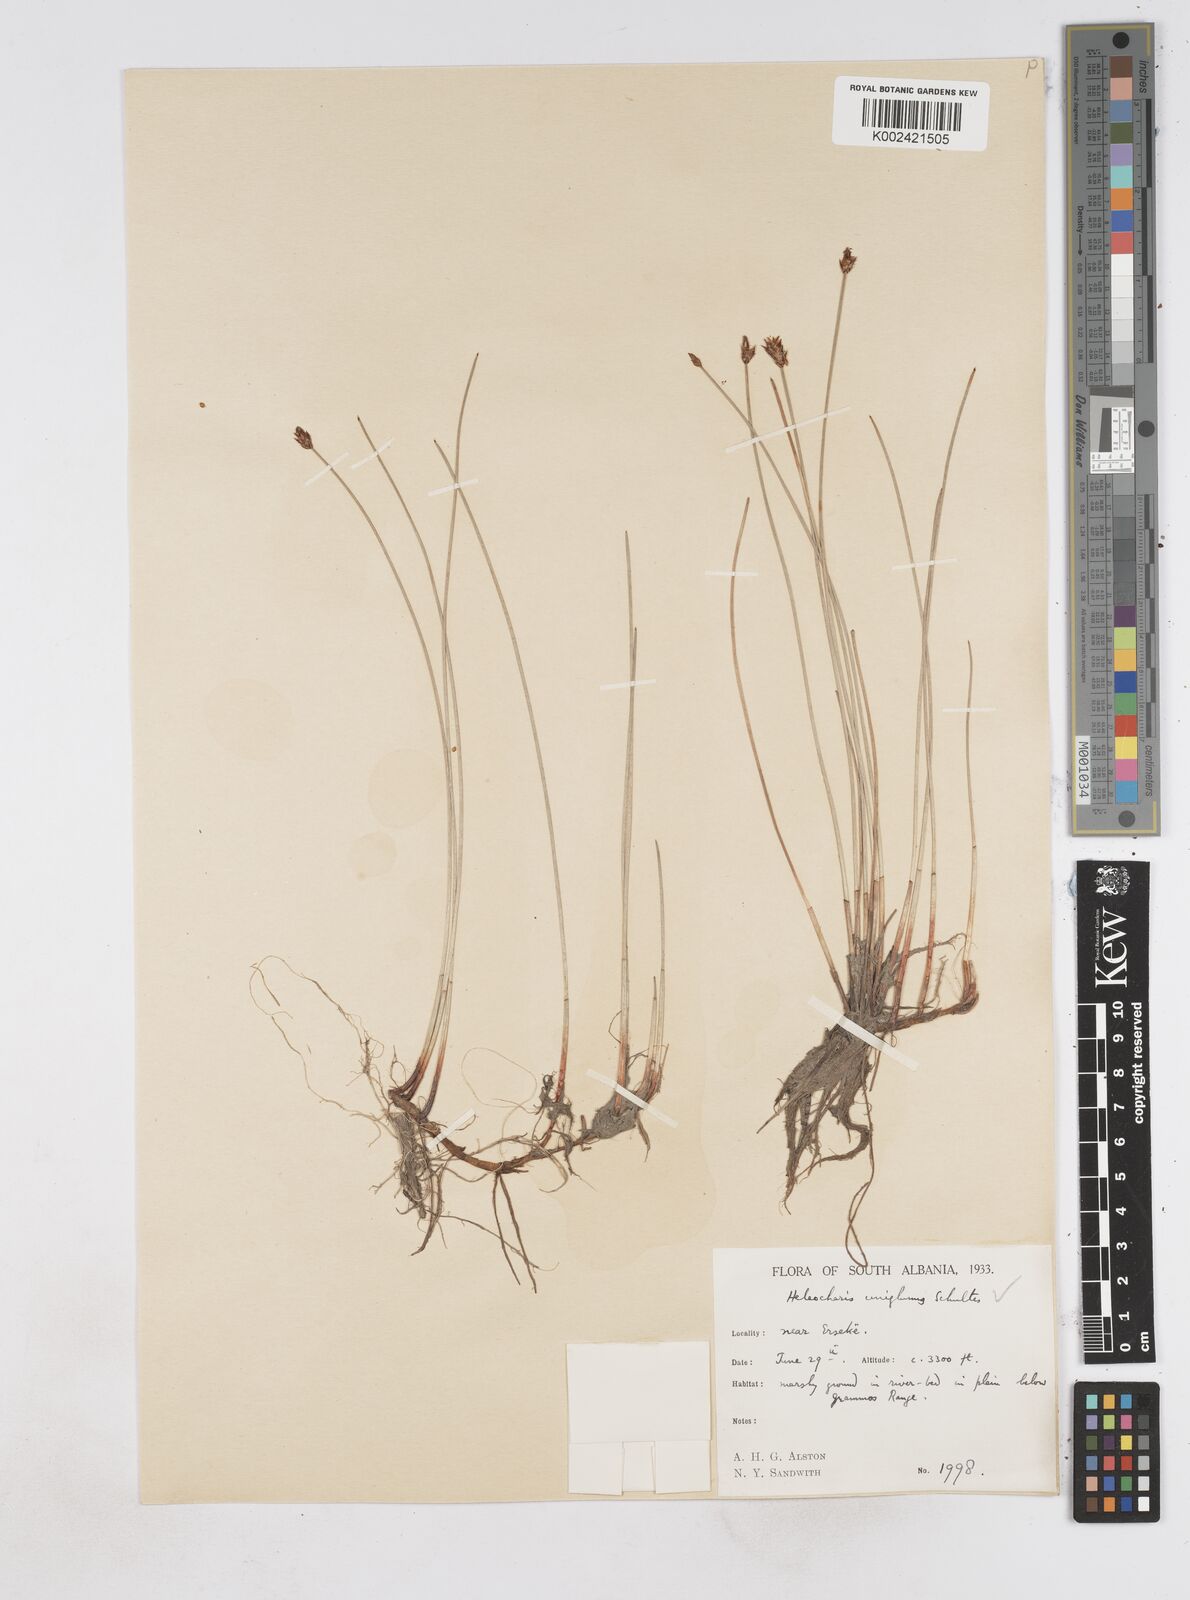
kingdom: Plantae
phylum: Tracheophyta
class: Liliopsida
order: Poales
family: Cyperaceae
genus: Eleocharis
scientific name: Eleocharis uniglumis
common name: Slender spike-rush
